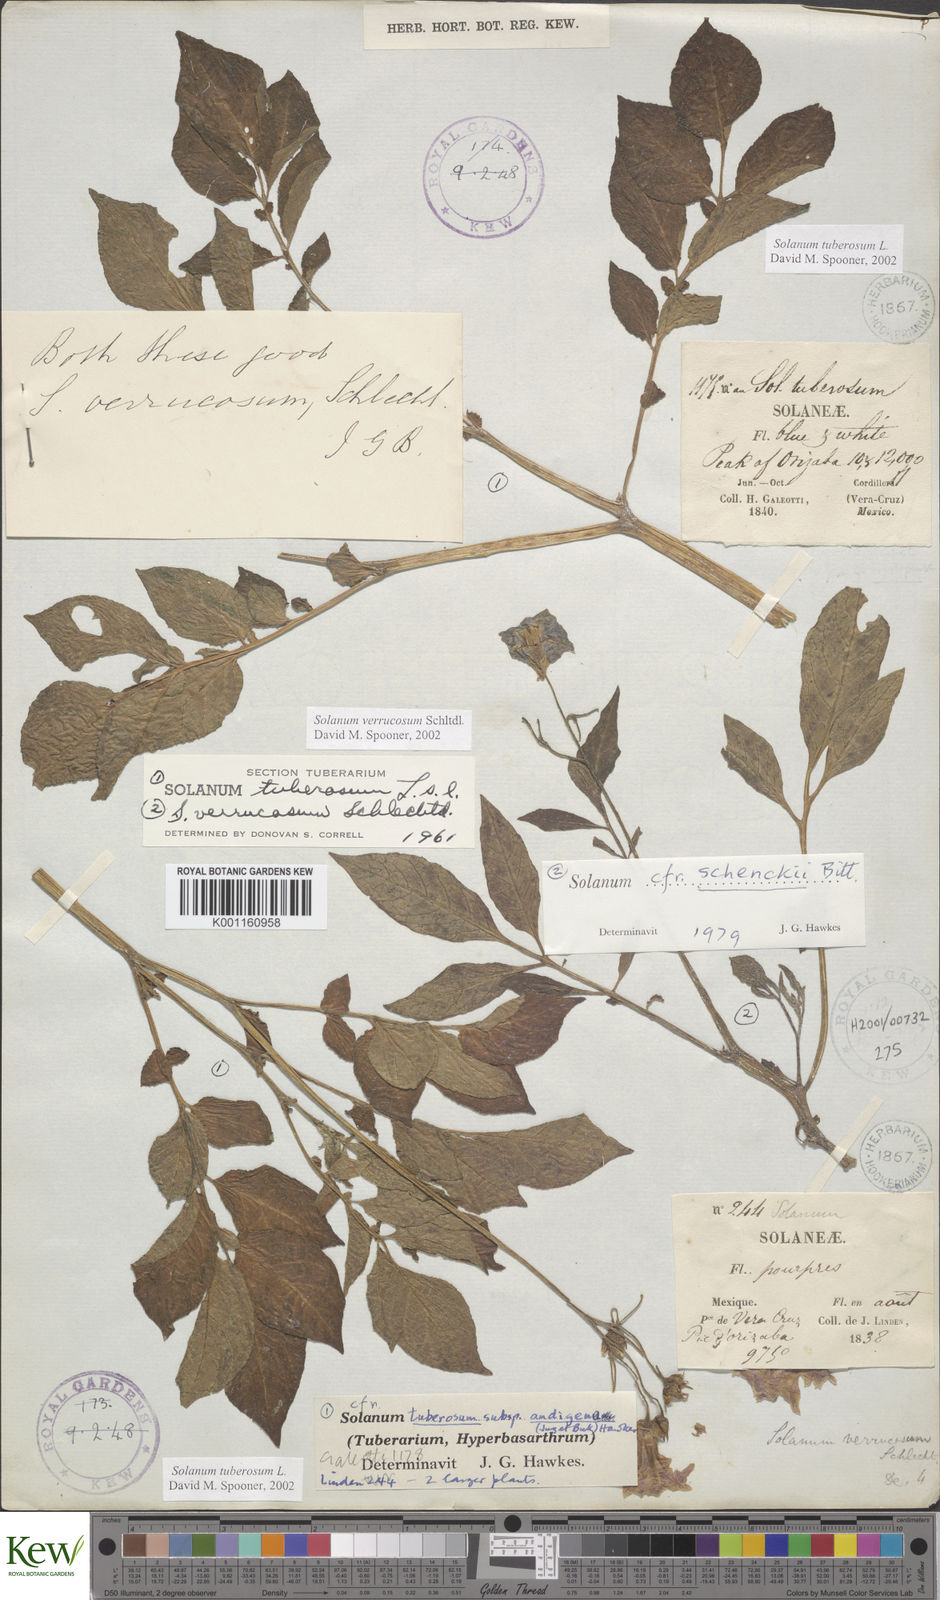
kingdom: Plantae
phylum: Tracheophyta
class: Magnoliopsida
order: Solanales
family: Solanaceae
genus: Solanum
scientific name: Solanum verrucosum
